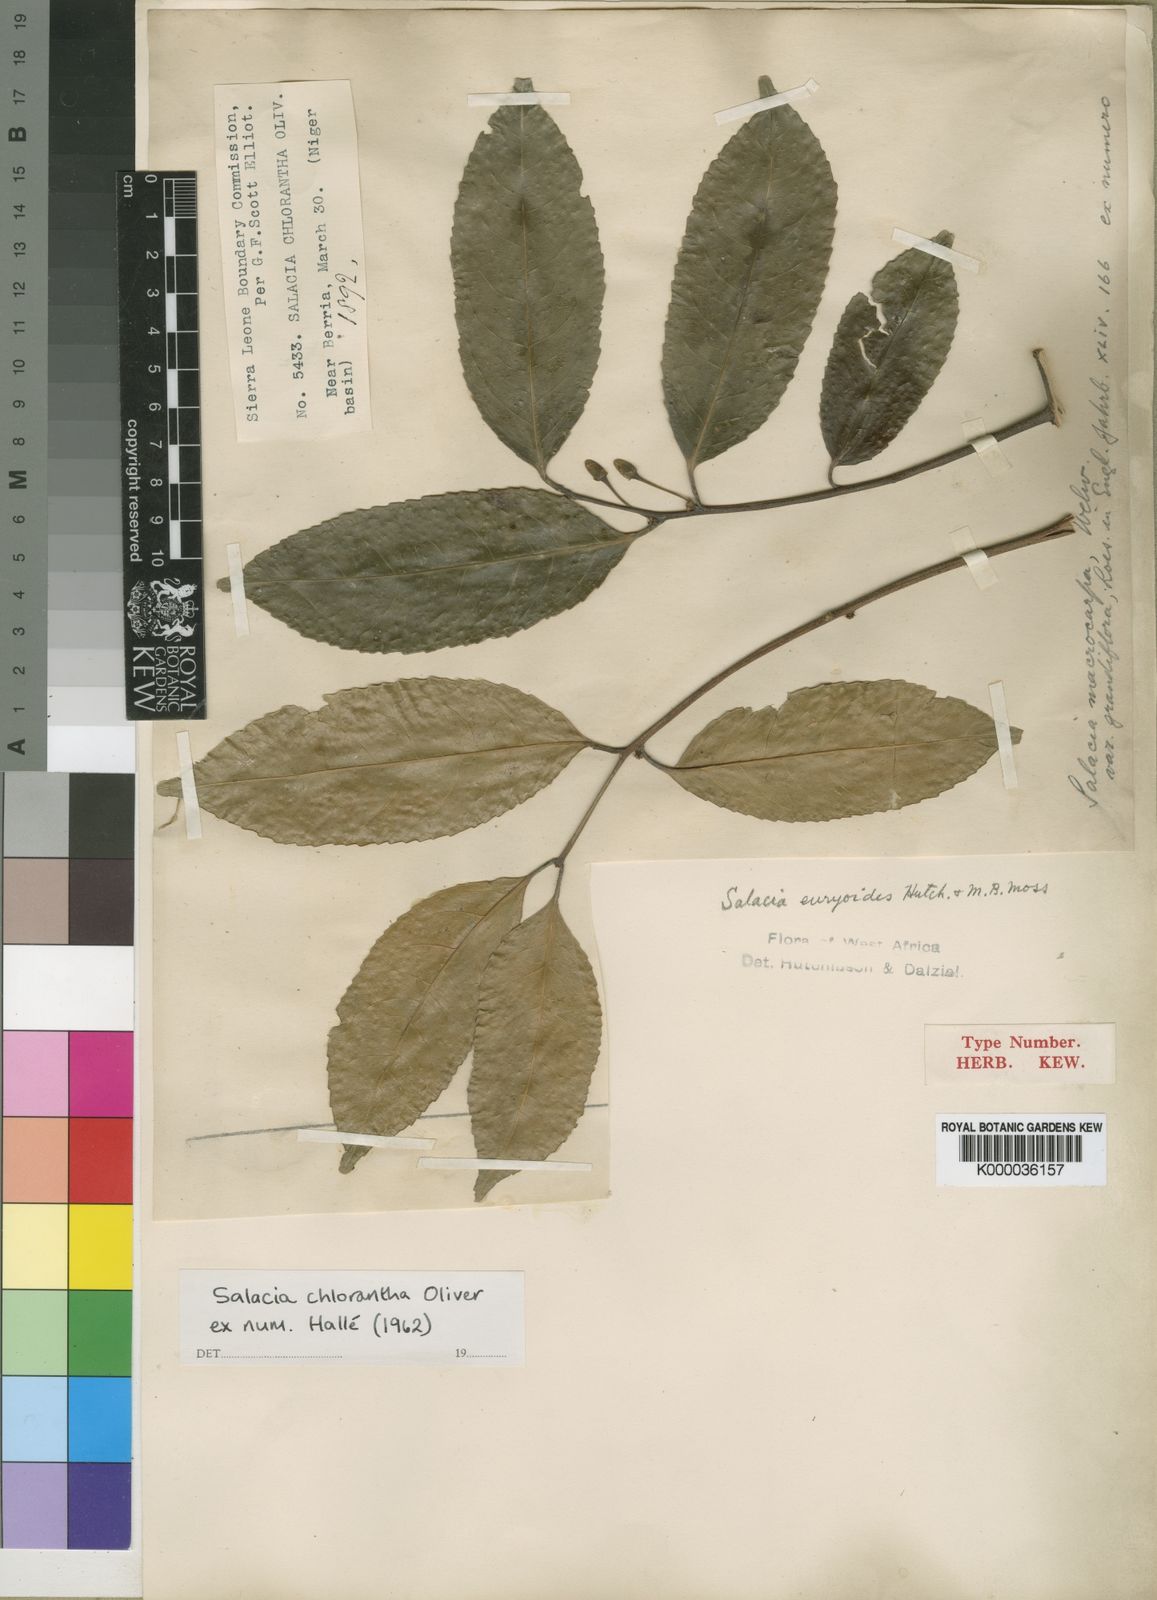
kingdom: Plantae
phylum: Tracheophyta
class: Magnoliopsida
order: Celastrales
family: Celastraceae
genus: Salacia
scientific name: Salacia chlorantha
